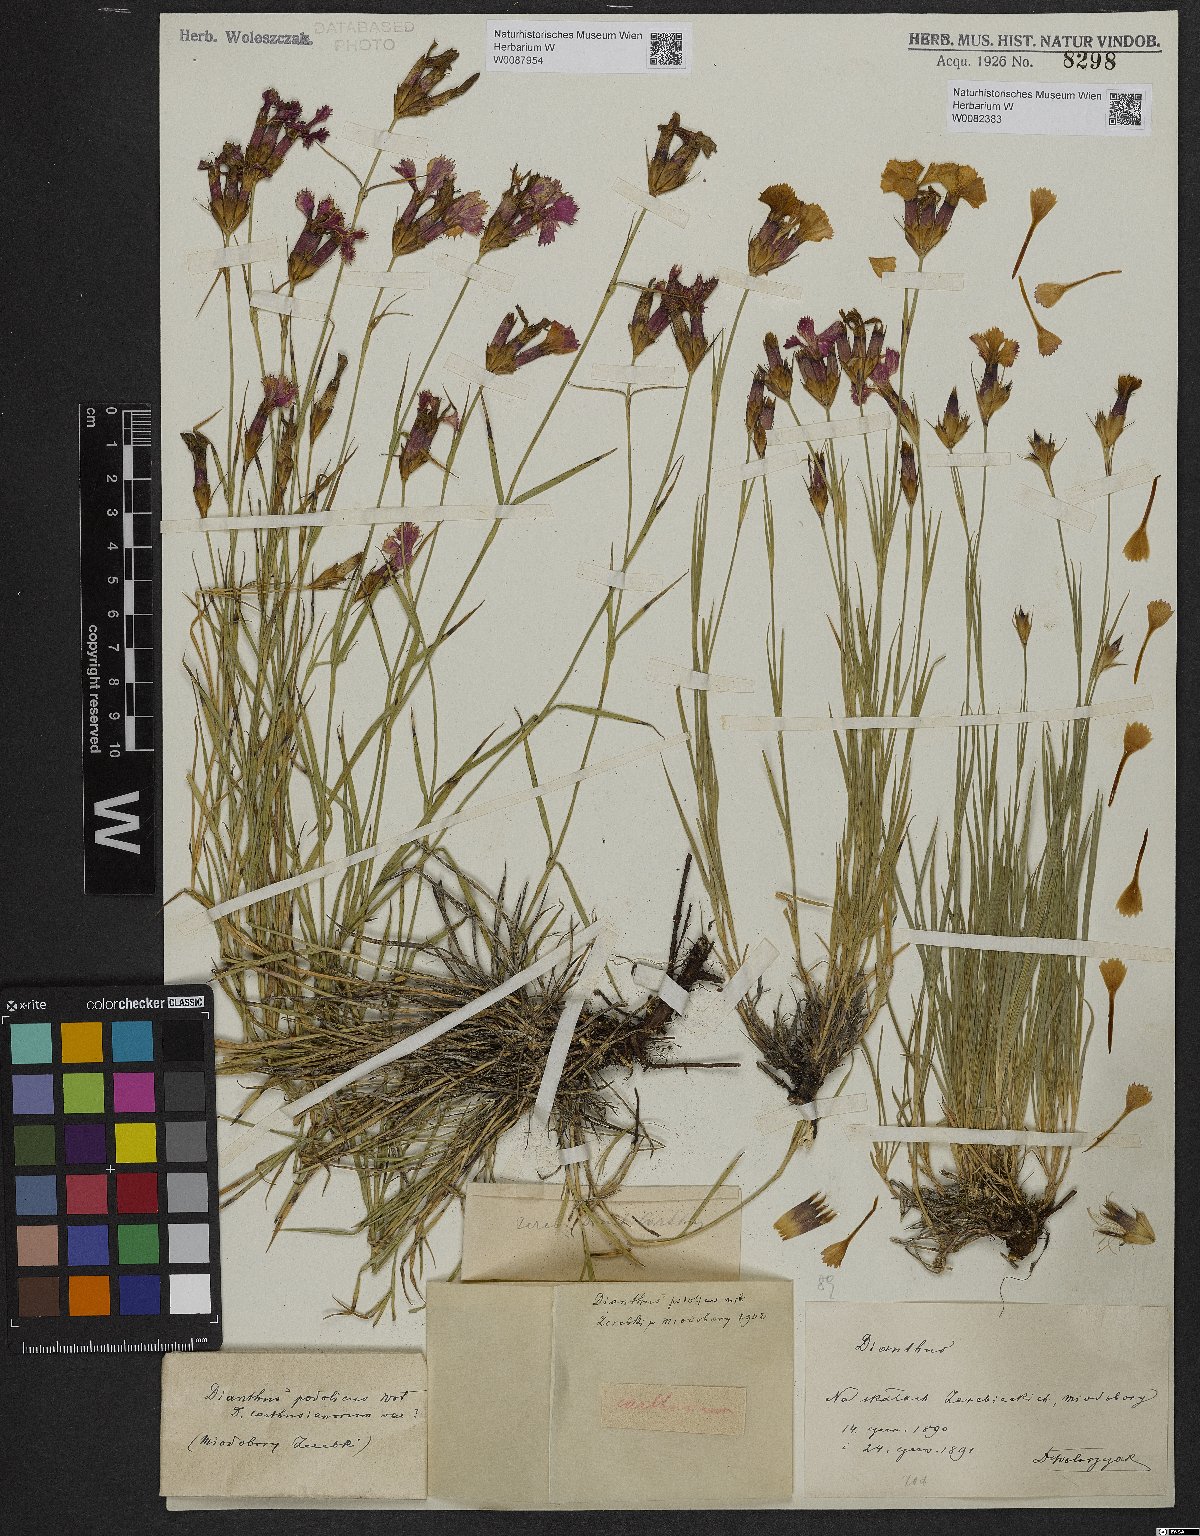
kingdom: Plantae
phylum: Tracheophyta
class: Magnoliopsida
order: Caryophyllales
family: Caryophyllaceae
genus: Dianthus
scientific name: Dianthus carthusianorum
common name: Carthusian pink
